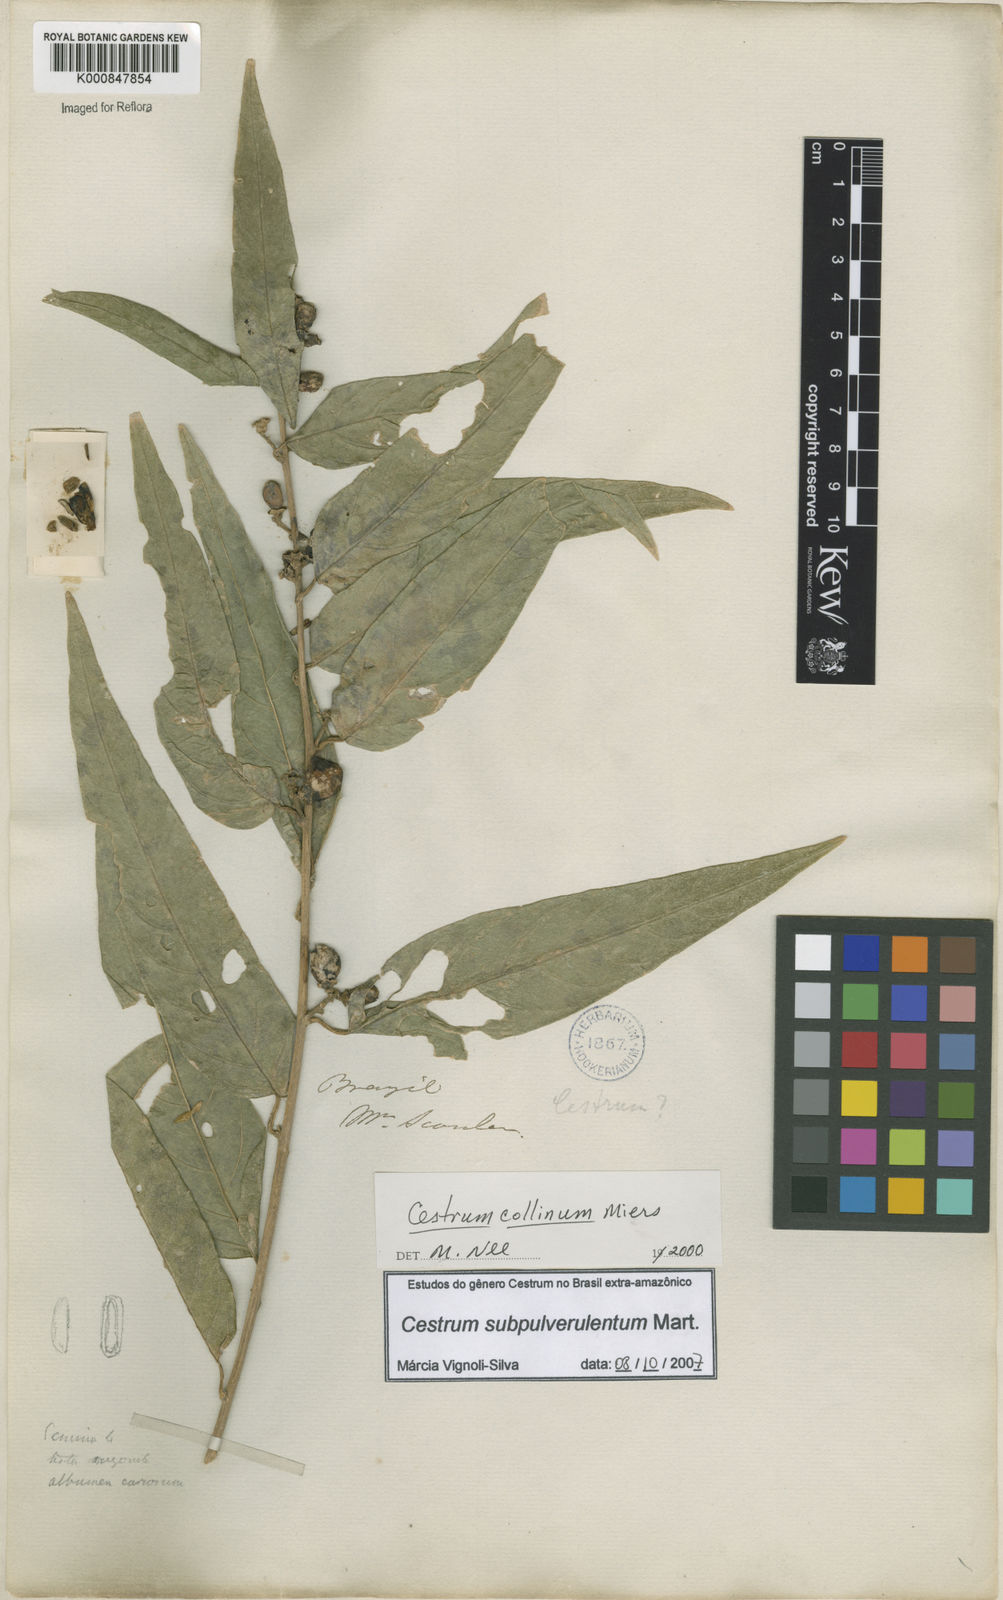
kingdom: Plantae
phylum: Tracheophyta
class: Magnoliopsida
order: Solanales
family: Solanaceae
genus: Cestrum
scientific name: Cestrum subpulverulentum
